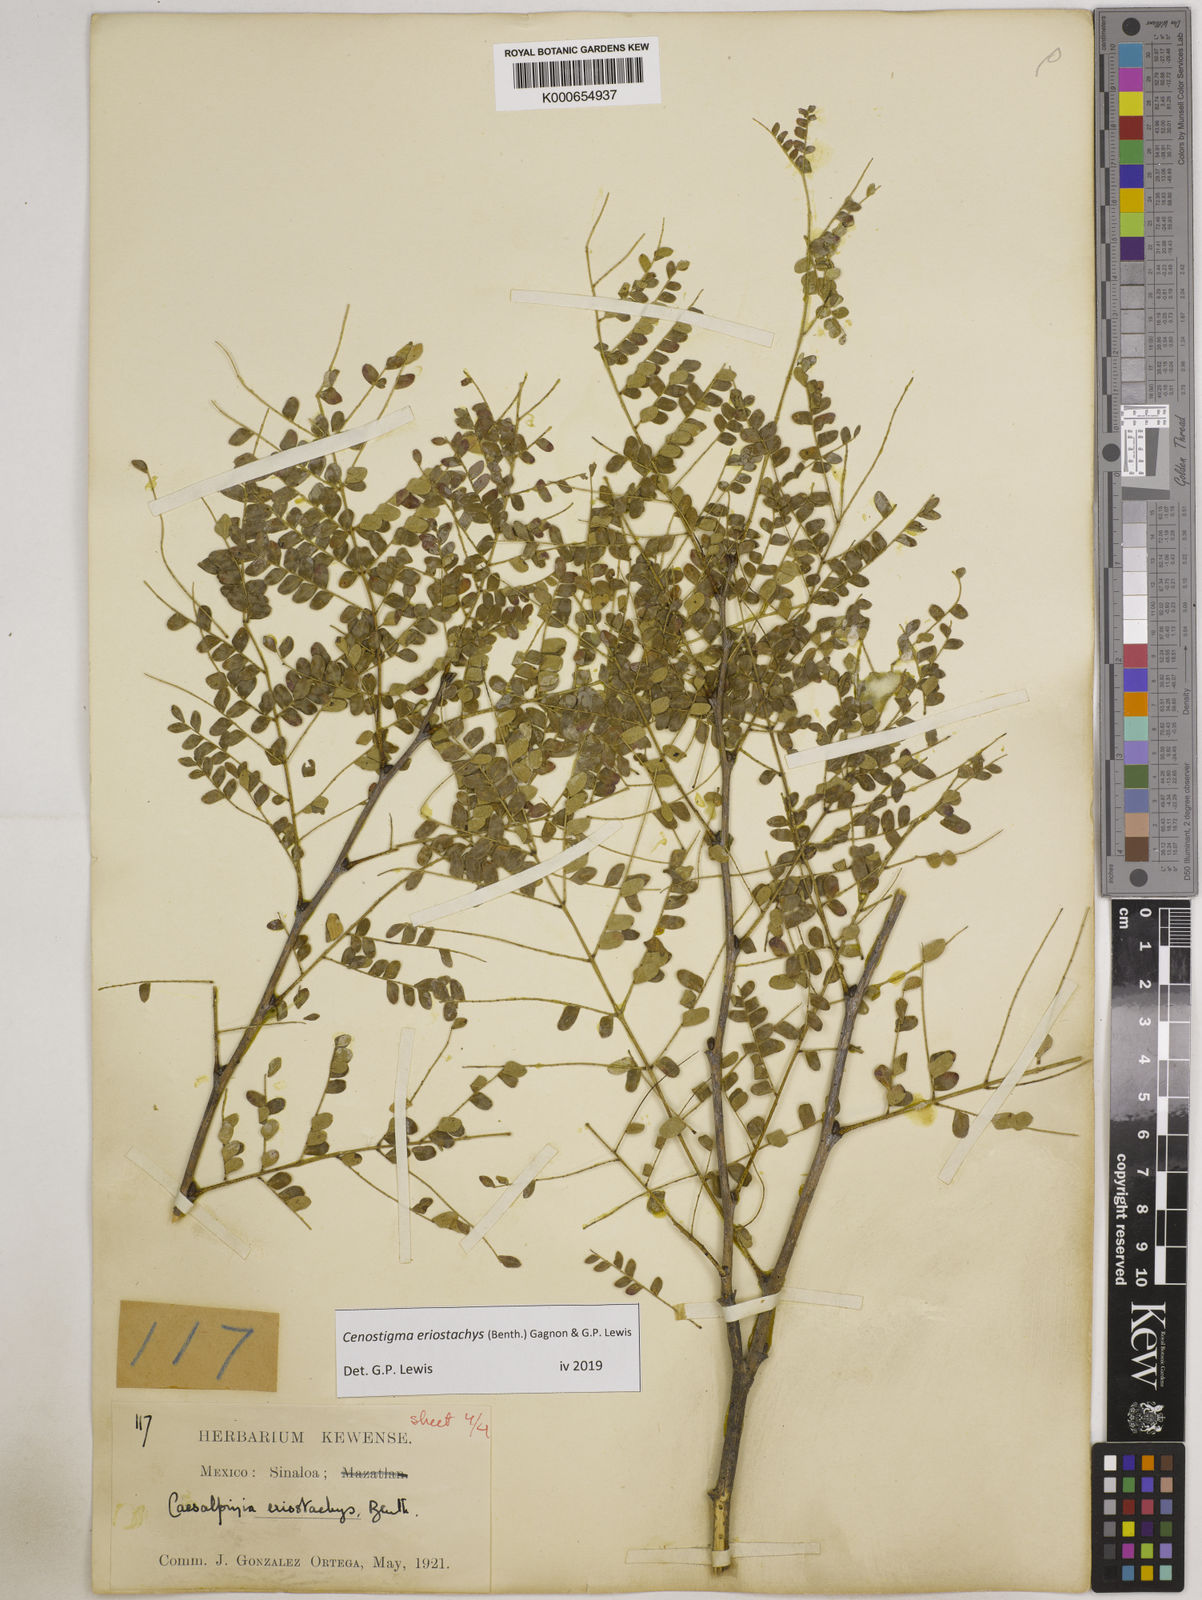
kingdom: Plantae
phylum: Tracheophyta
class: Magnoliopsida
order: Fabales
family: Fabaceae
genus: Cenostigma
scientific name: Cenostigma eriostachys
